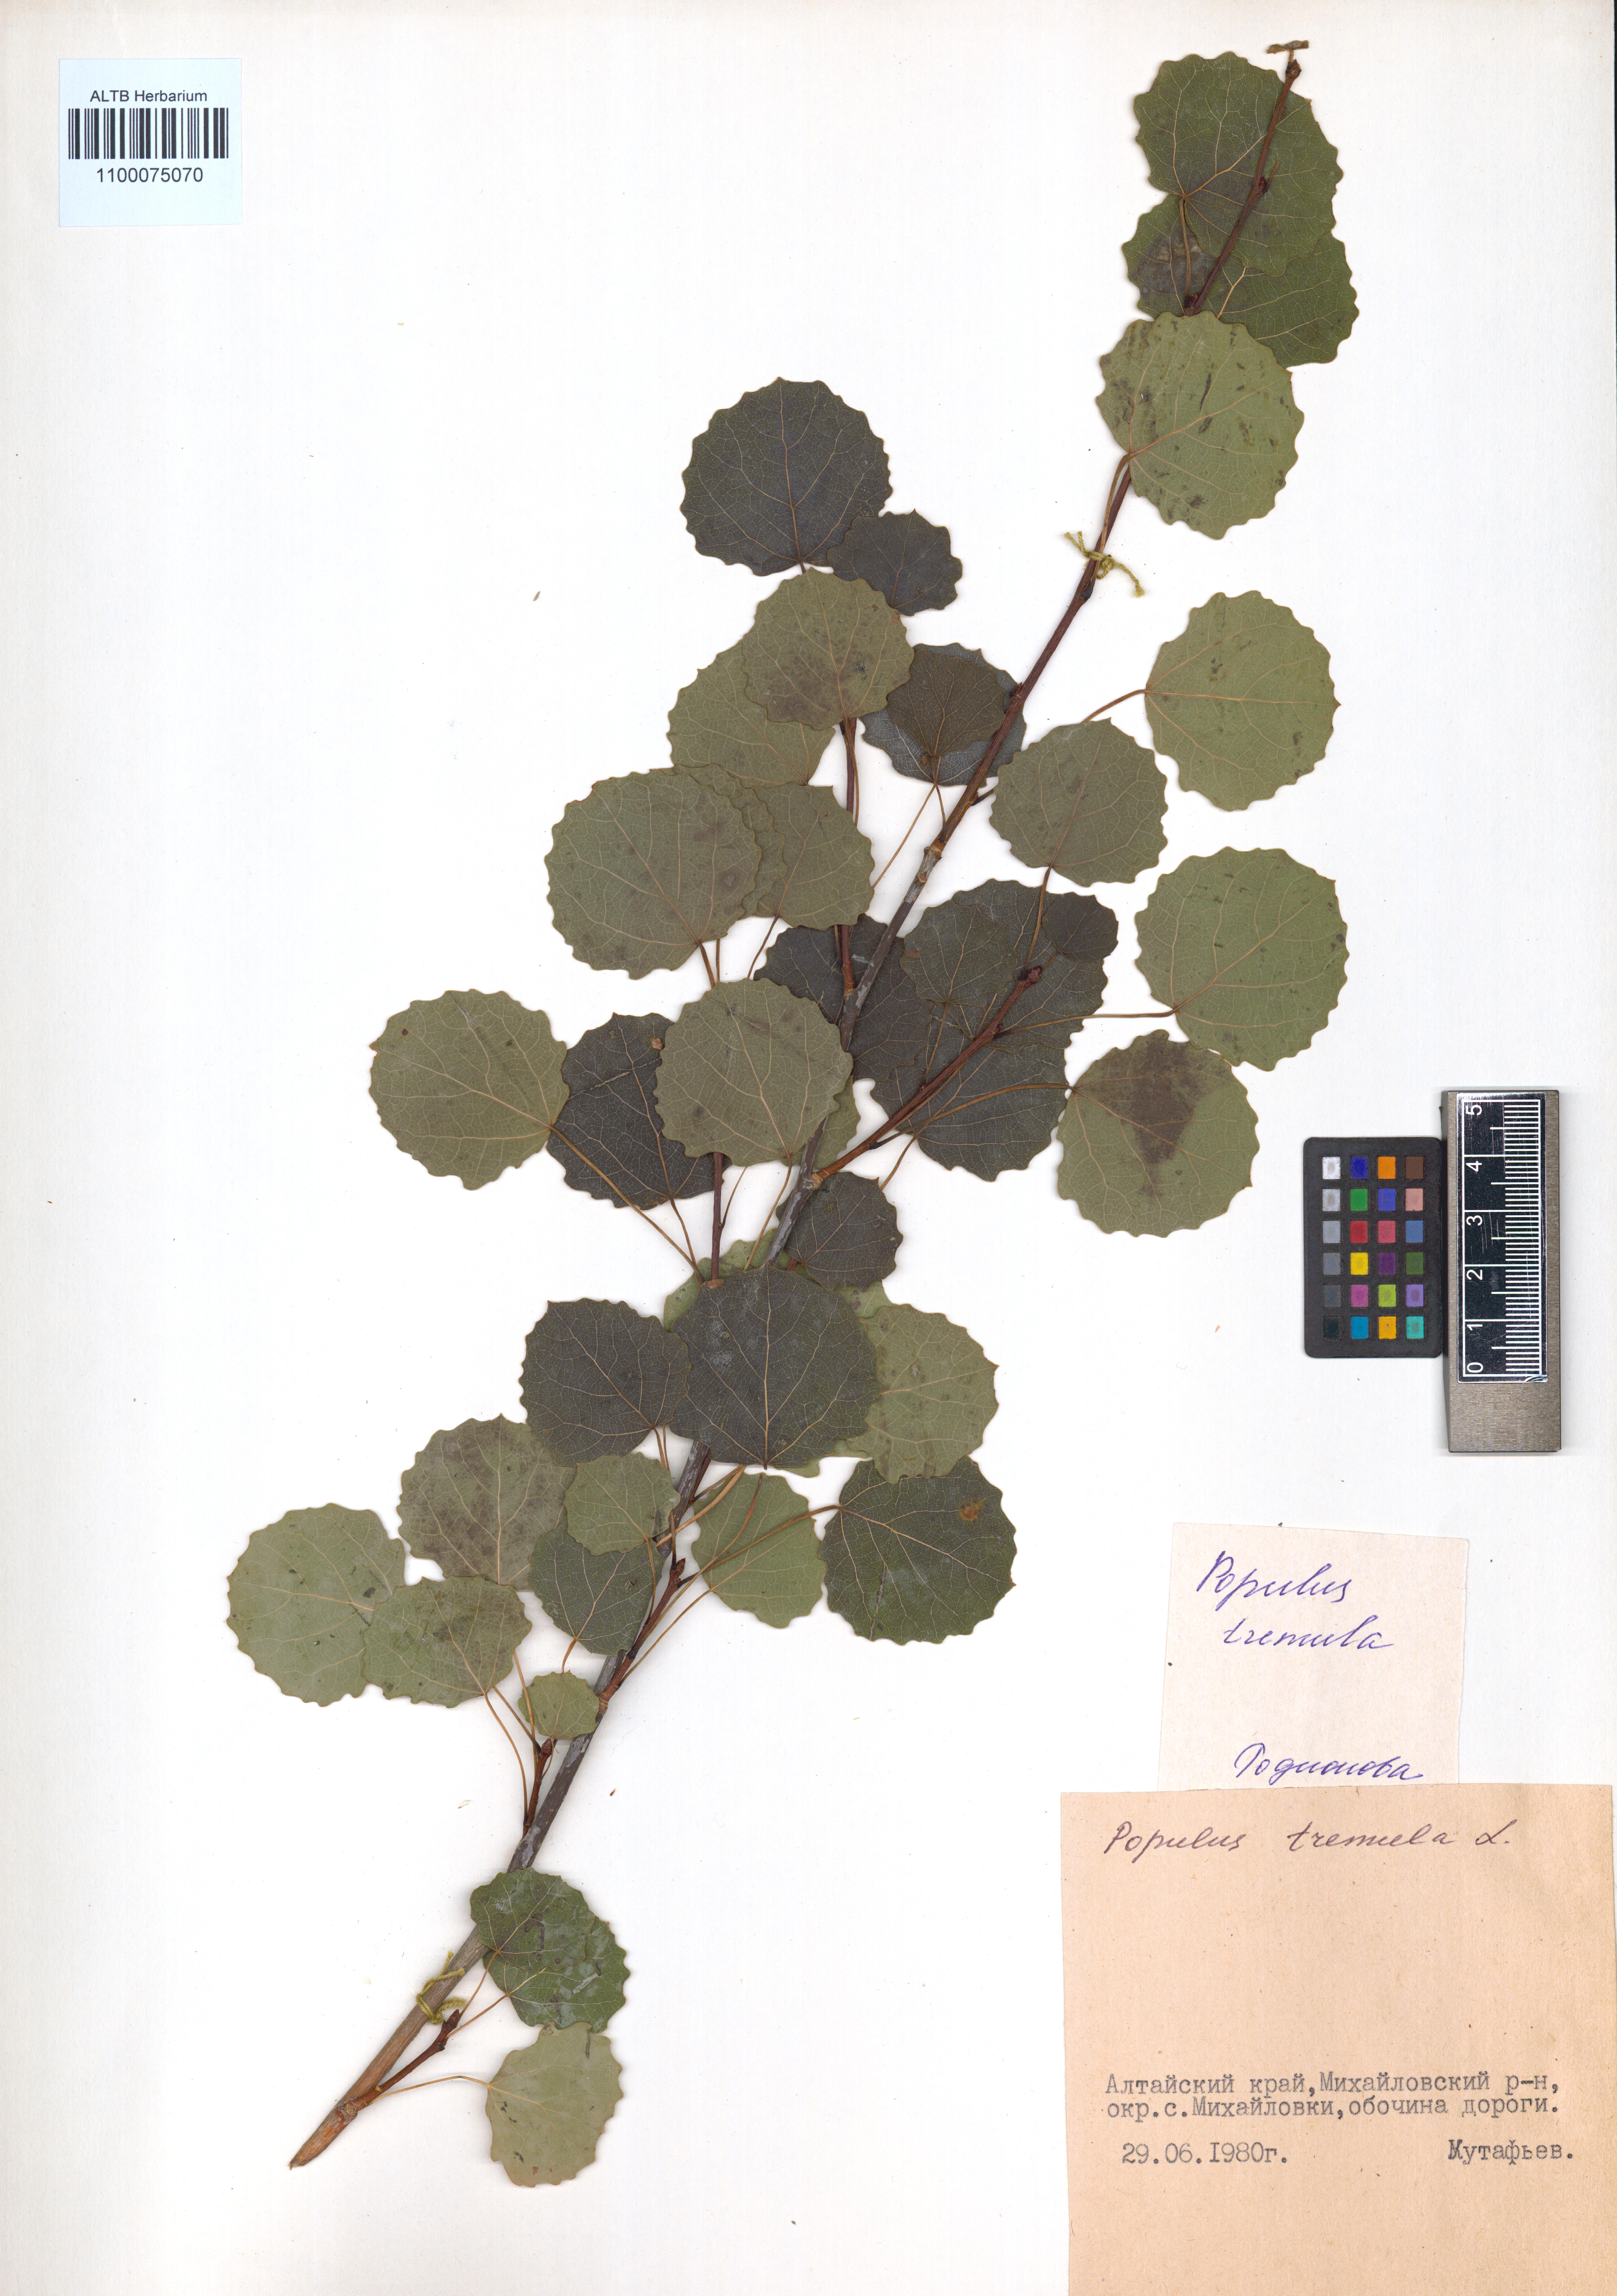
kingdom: Plantae
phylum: Tracheophyta
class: Magnoliopsida
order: Malpighiales
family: Salicaceae
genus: Populus
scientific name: Populus tremula
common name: European aspen
